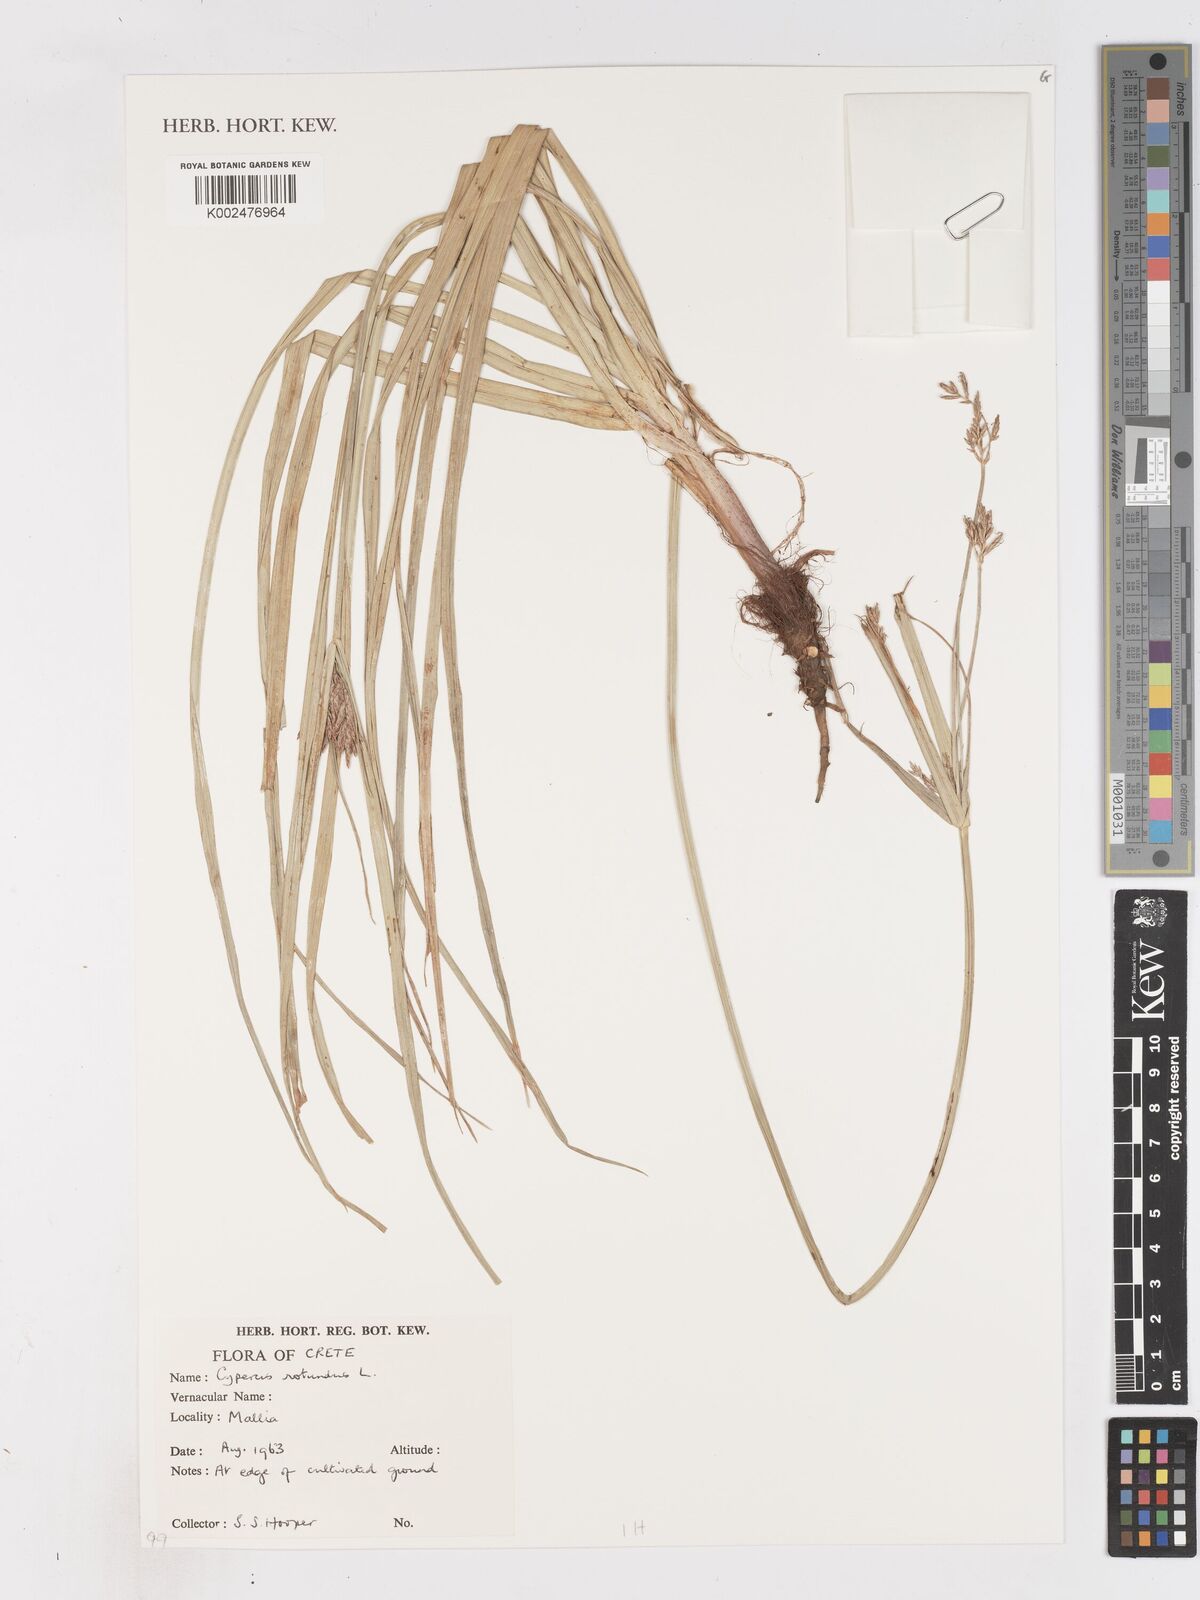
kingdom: Plantae
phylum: Tracheophyta
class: Liliopsida
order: Poales
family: Cyperaceae
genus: Cyperus
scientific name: Cyperus
